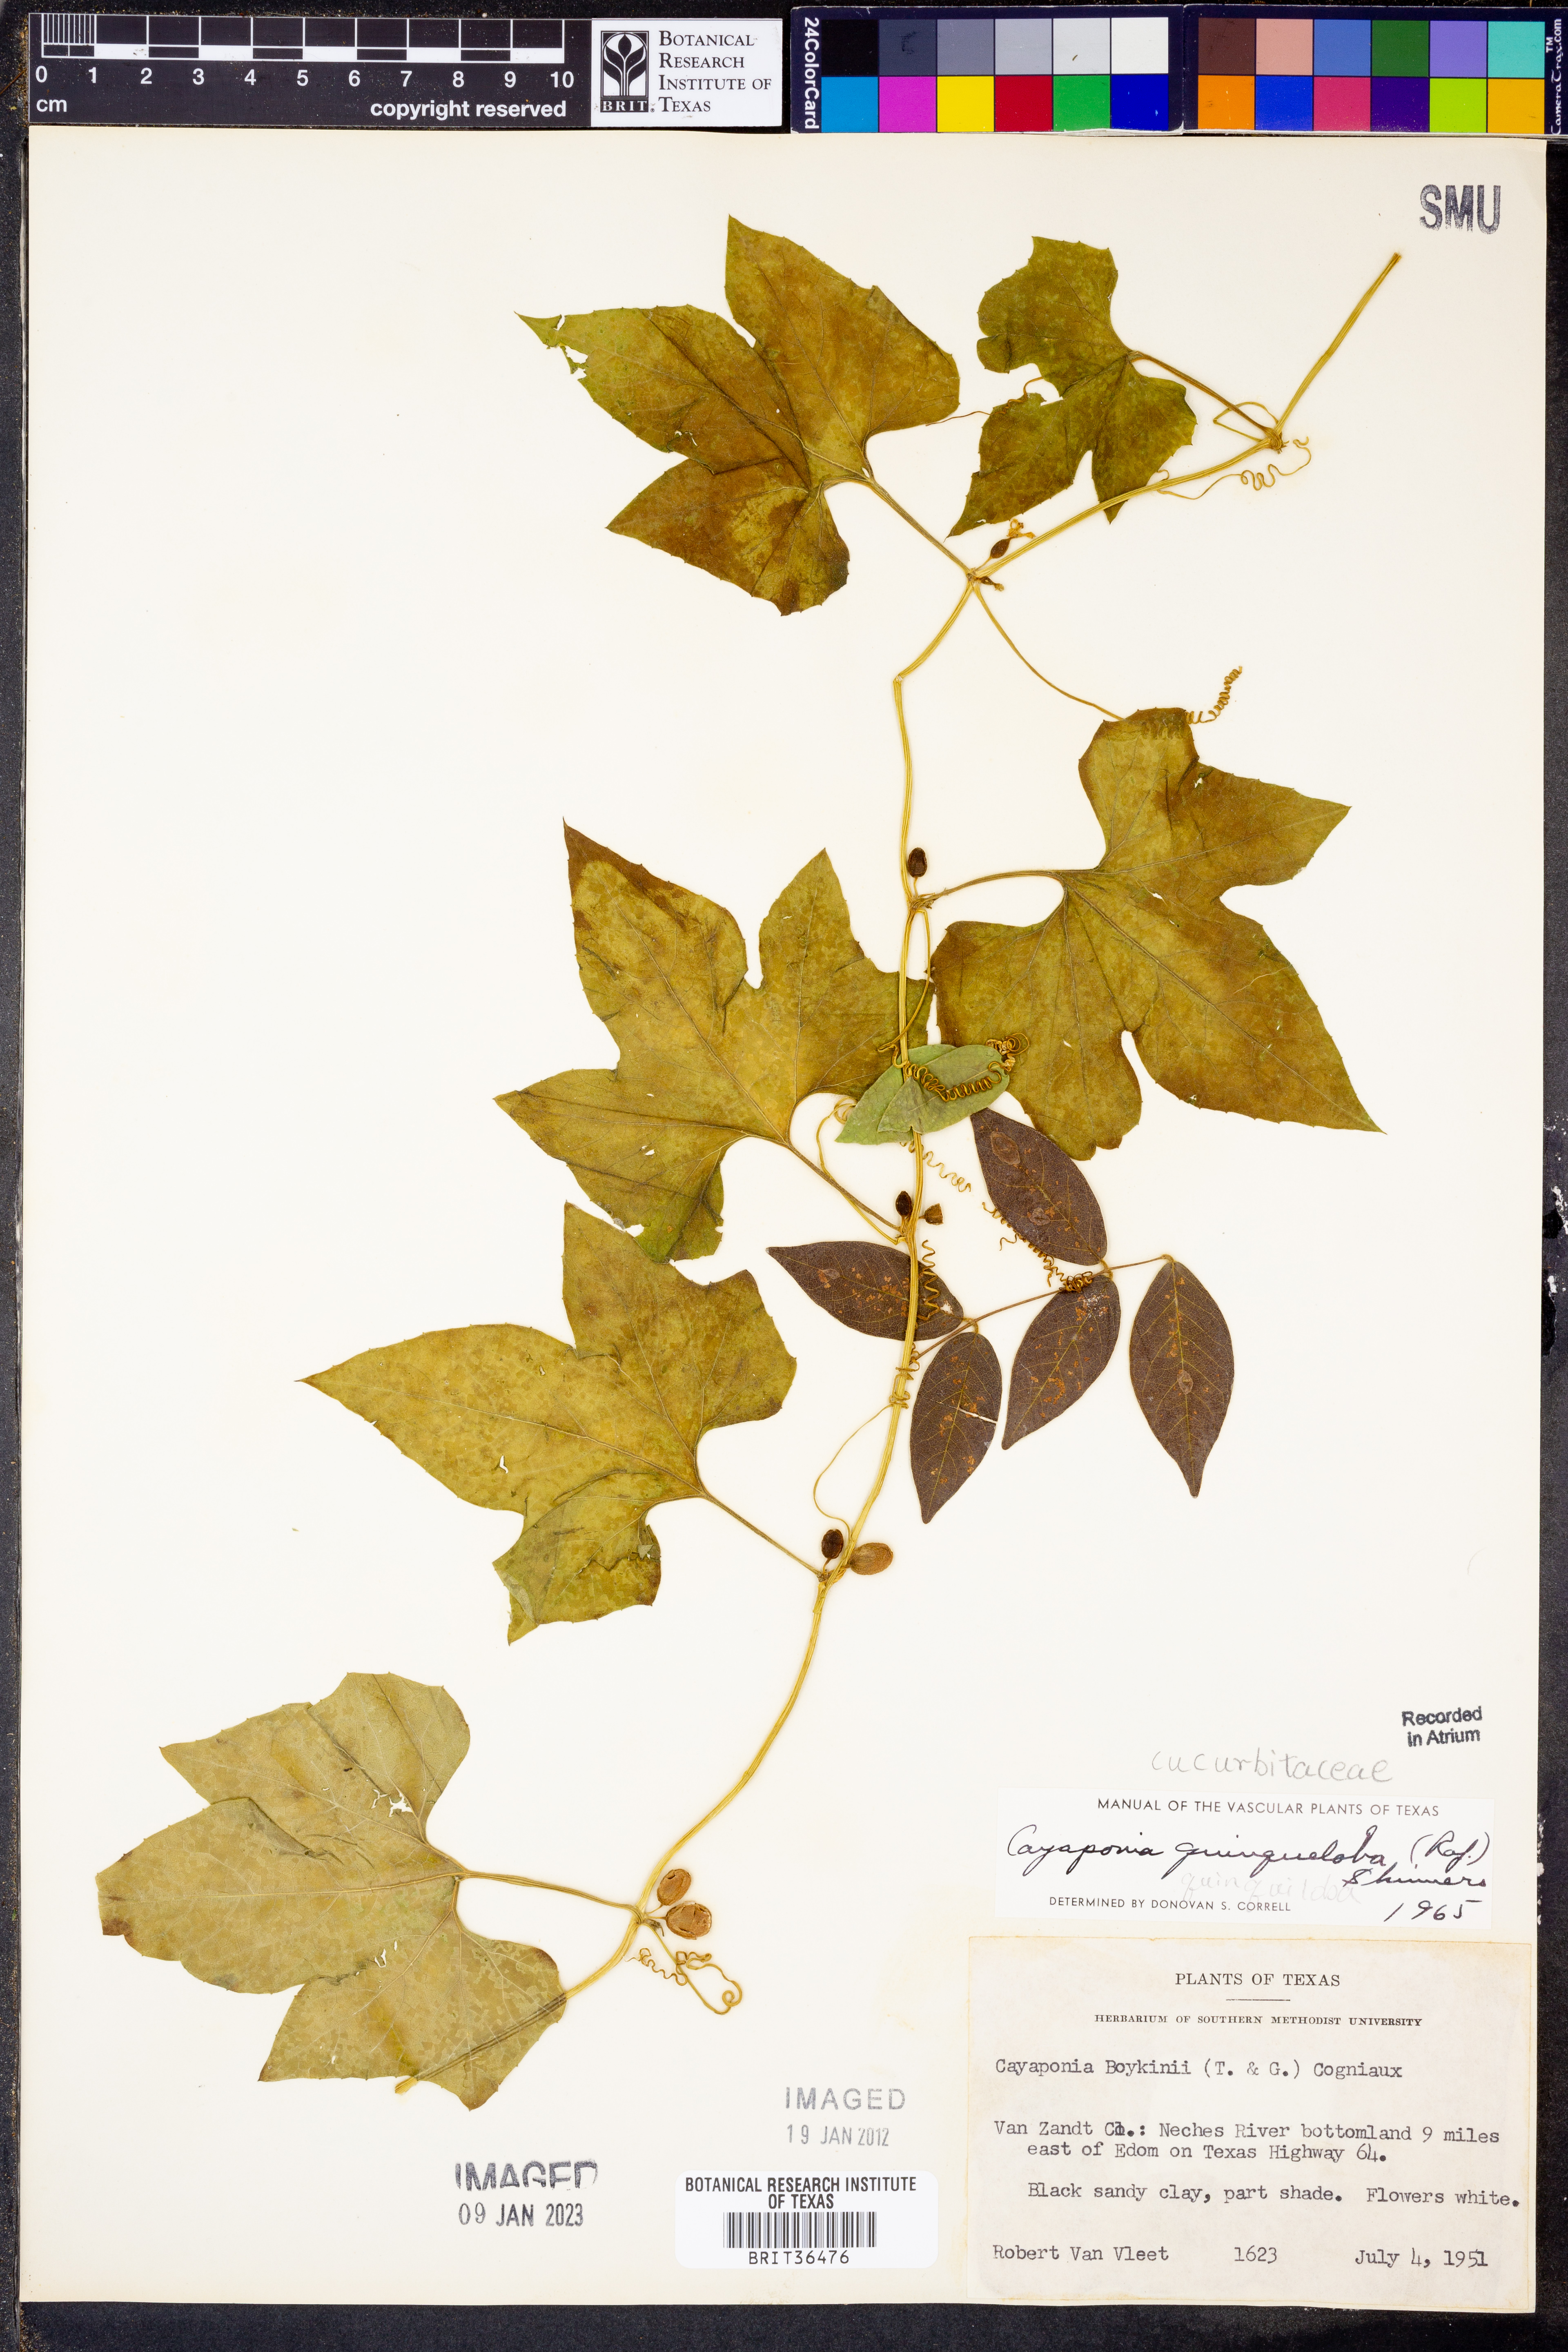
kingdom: Plantae
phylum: Tracheophyta
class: Magnoliopsida
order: Cucurbitales
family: Cucurbitaceae
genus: Cayaponia
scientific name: Cayaponia quinqueloba
